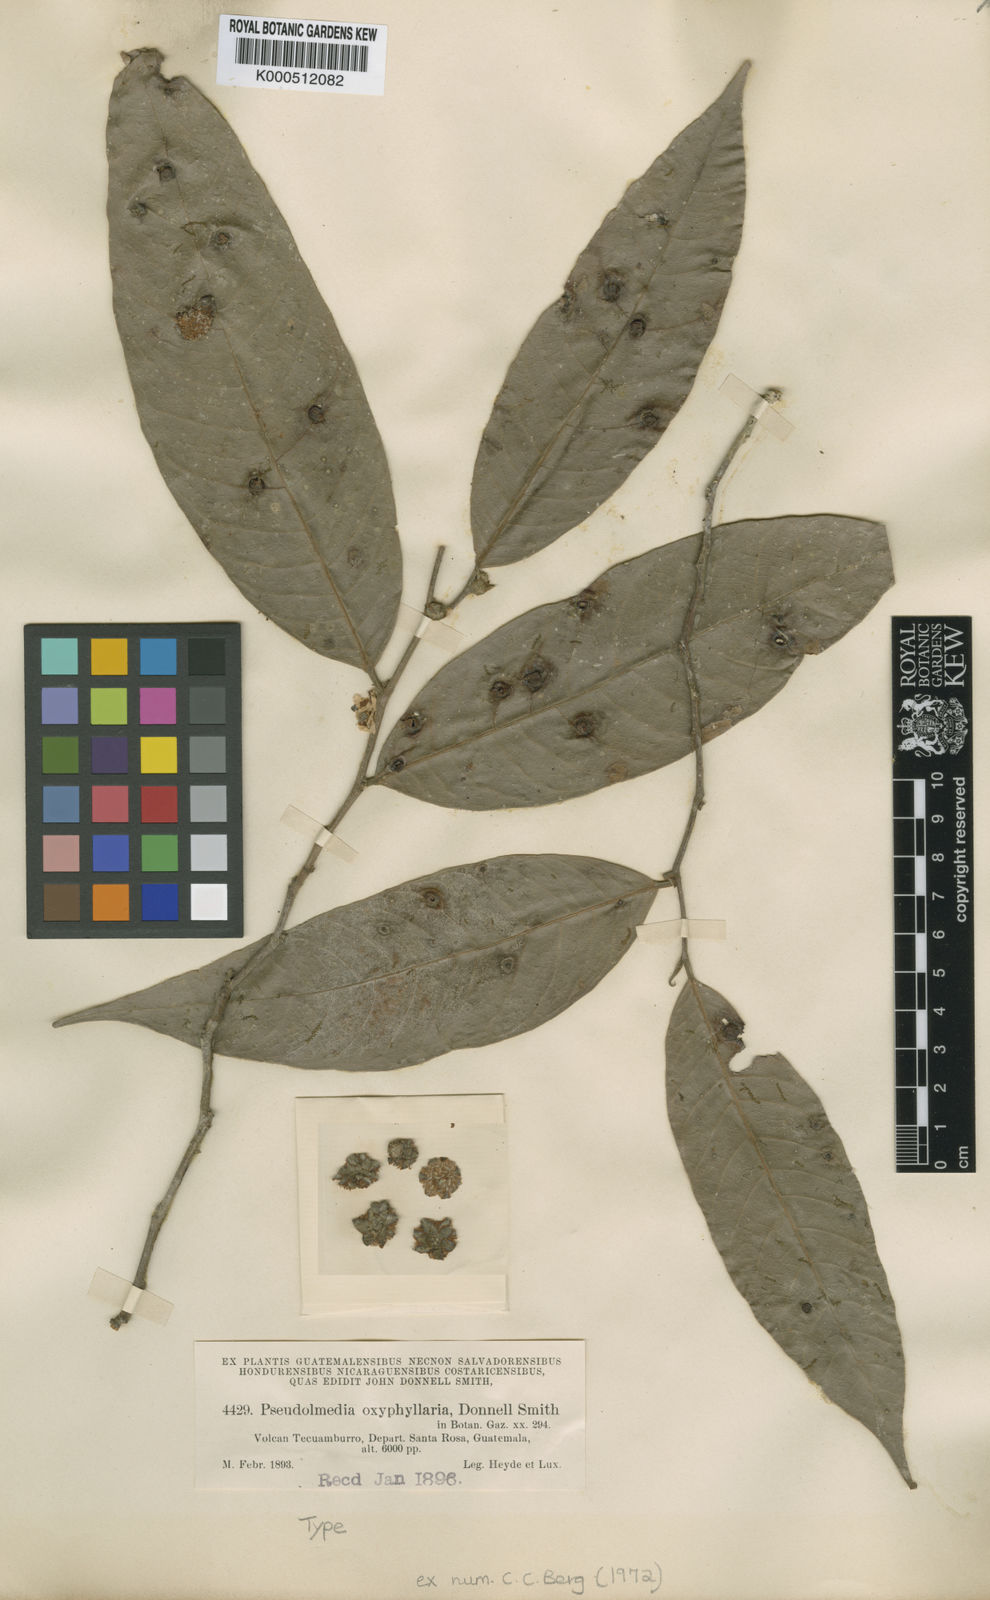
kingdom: Plantae
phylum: Tracheophyta
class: Magnoliopsida
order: Rosales
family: Moraceae
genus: Pseudolmedia
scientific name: Pseudolmedia glabrata
